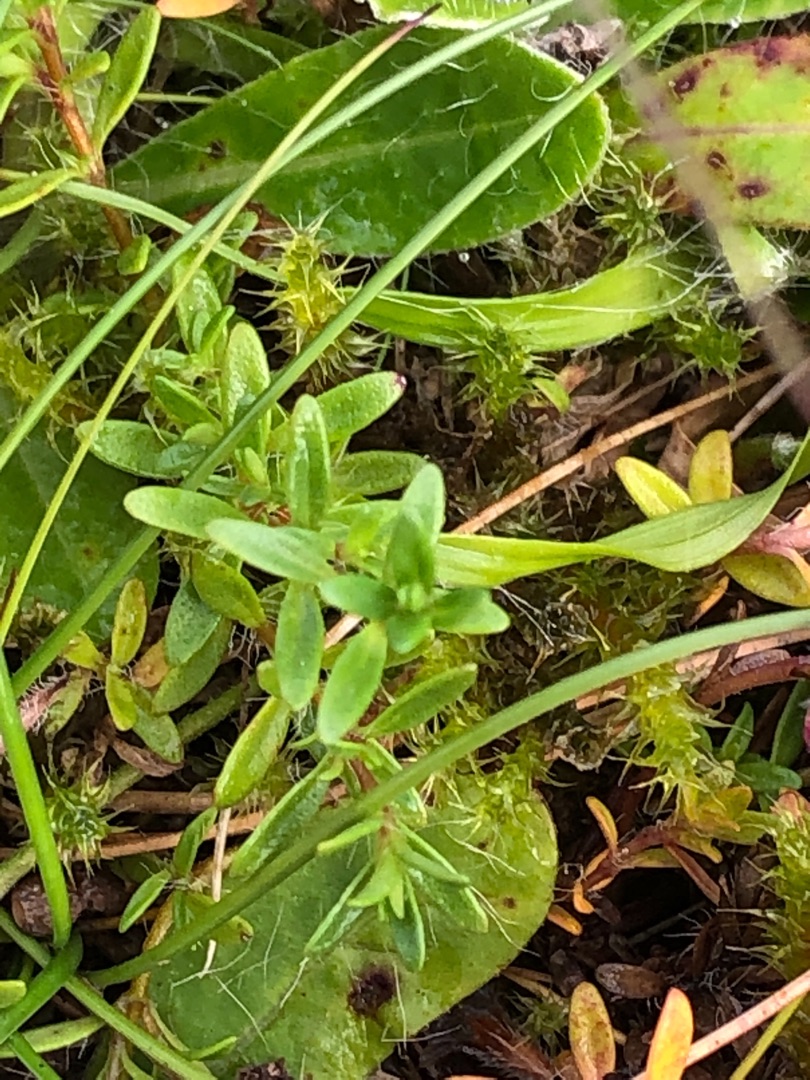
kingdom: Plantae
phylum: Tracheophyta
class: Magnoliopsida
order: Lamiales
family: Lamiaceae
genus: Thymus
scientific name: Thymus serpyllum
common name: Smalbladet timian
